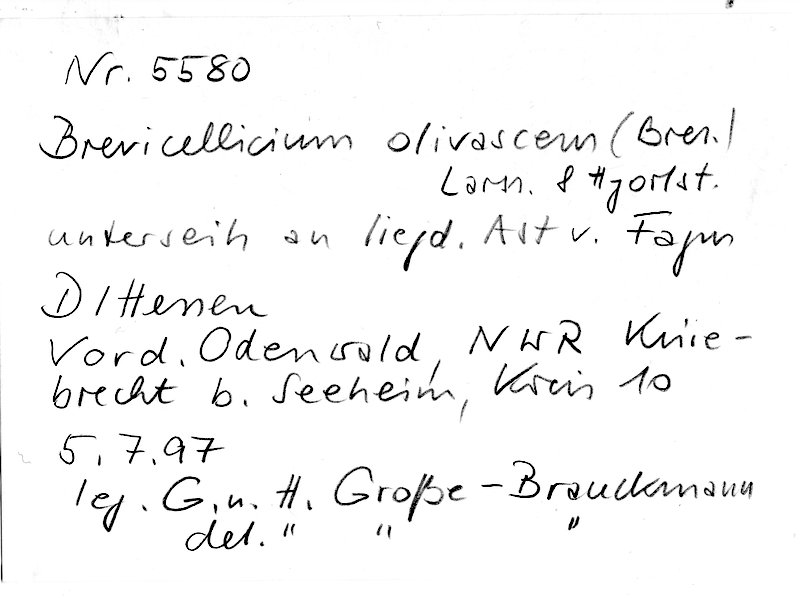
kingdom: Plantae
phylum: Tracheophyta
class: Magnoliopsida
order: Fagales
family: Fagaceae
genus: Fagus
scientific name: Fagus sylvatica
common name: Beech
